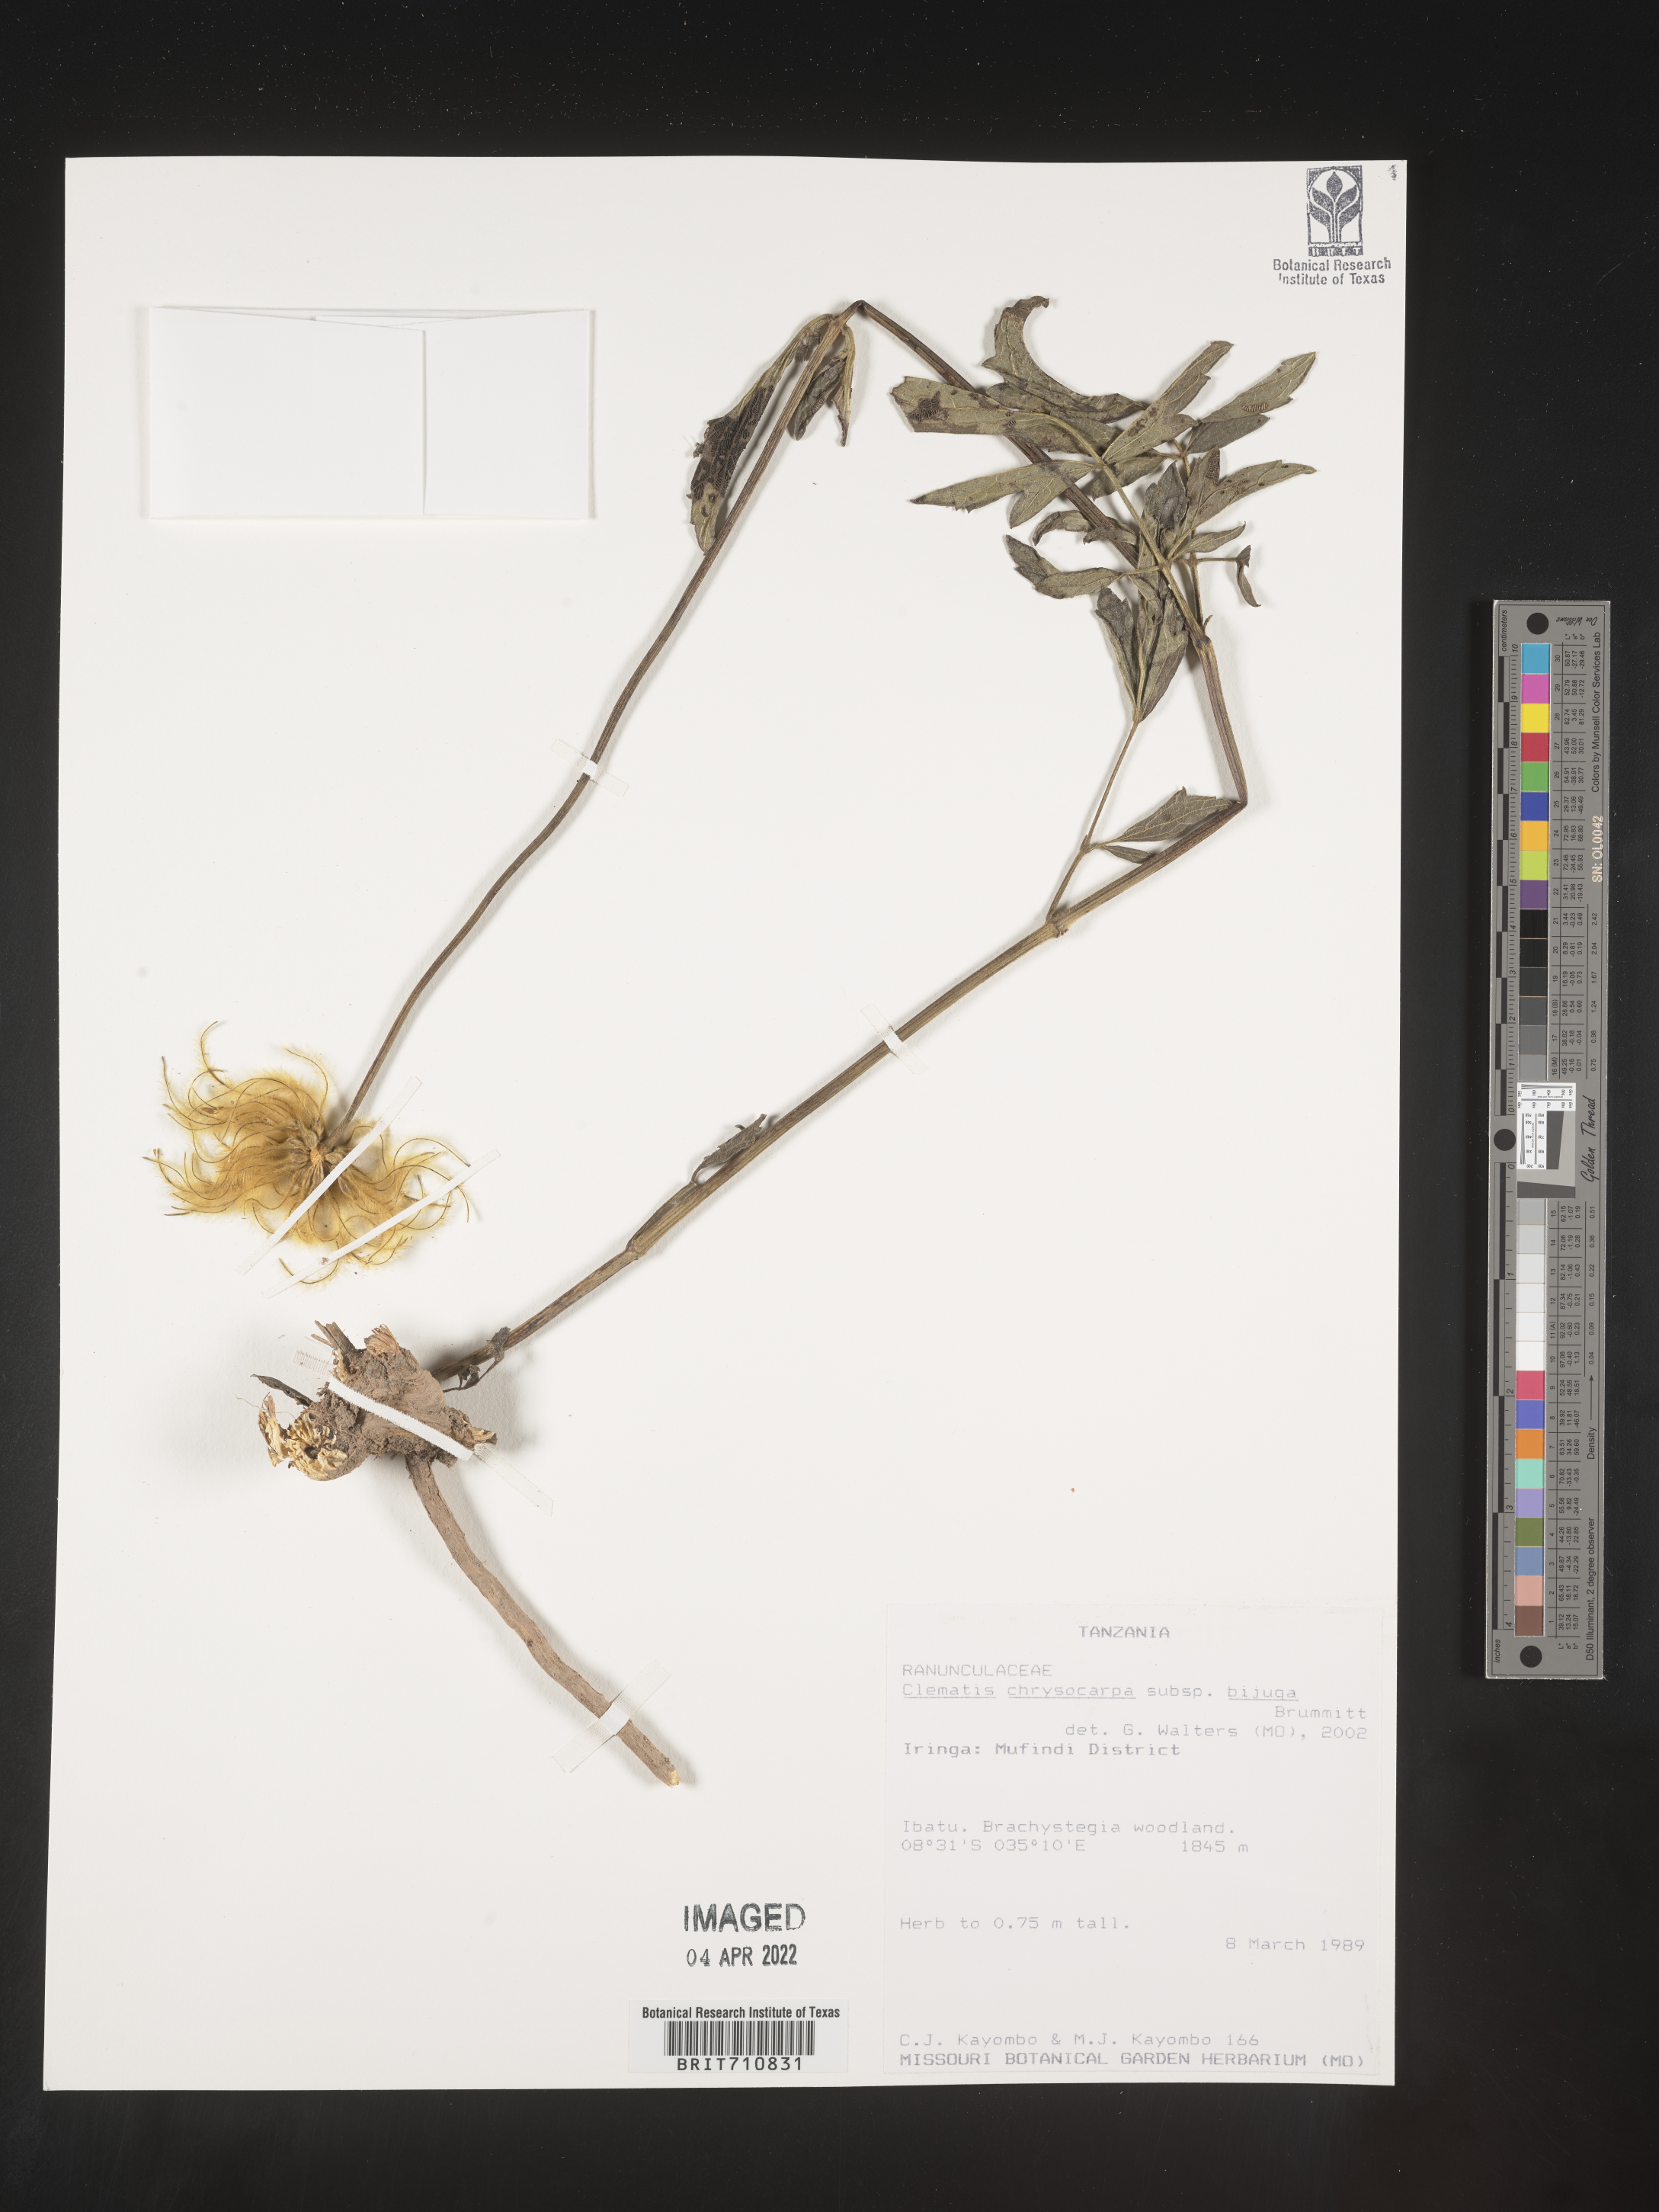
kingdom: Plantae
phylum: Tracheophyta
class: Magnoliopsida
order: Ranunculales
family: Ranunculaceae
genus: Clematis
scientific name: Clematis
